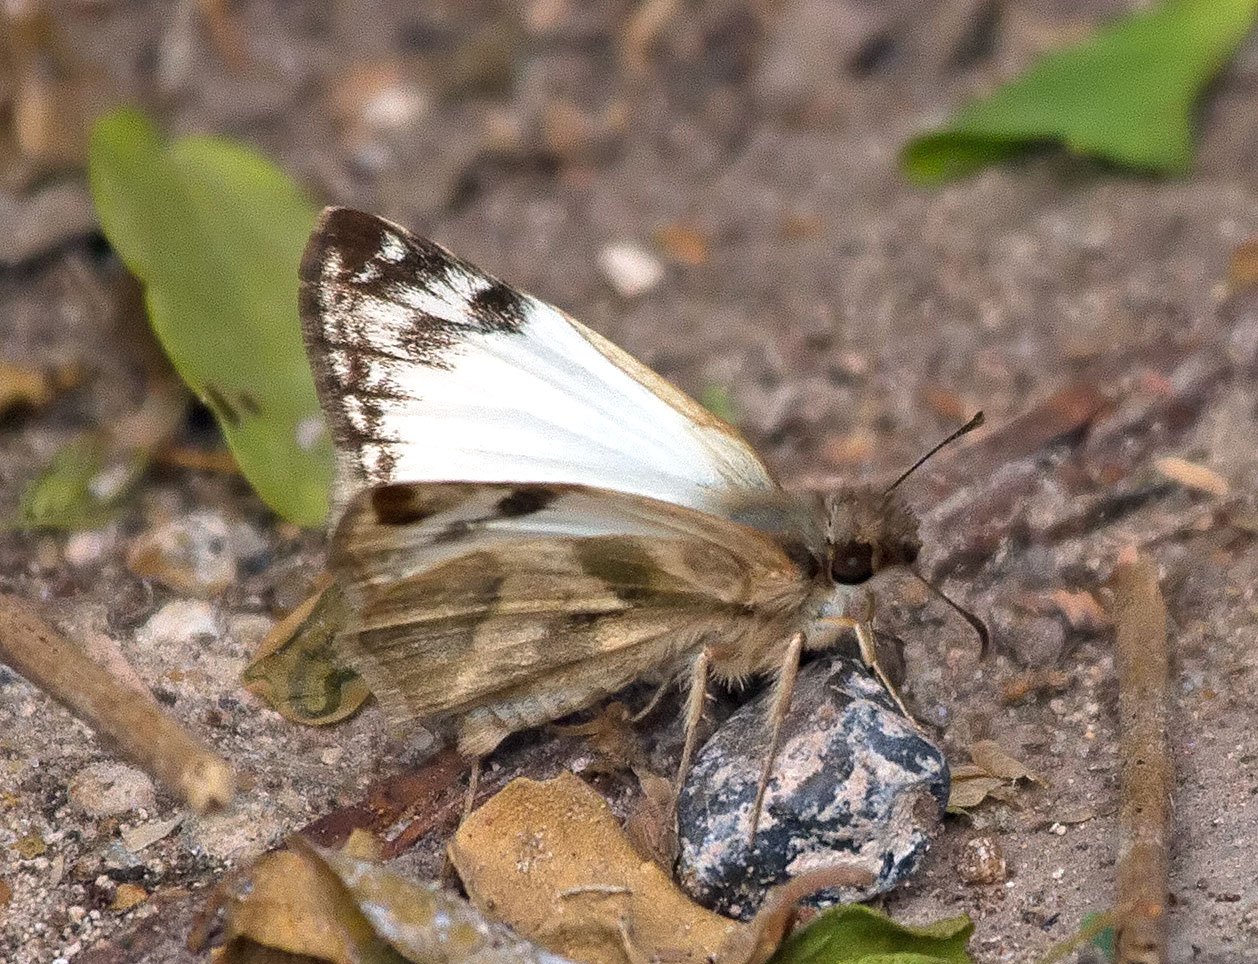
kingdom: Animalia
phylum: Arthropoda
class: Insecta
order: Lepidoptera
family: Pieridae
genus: Pontia
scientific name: Pontia protodice
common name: Checkered White
